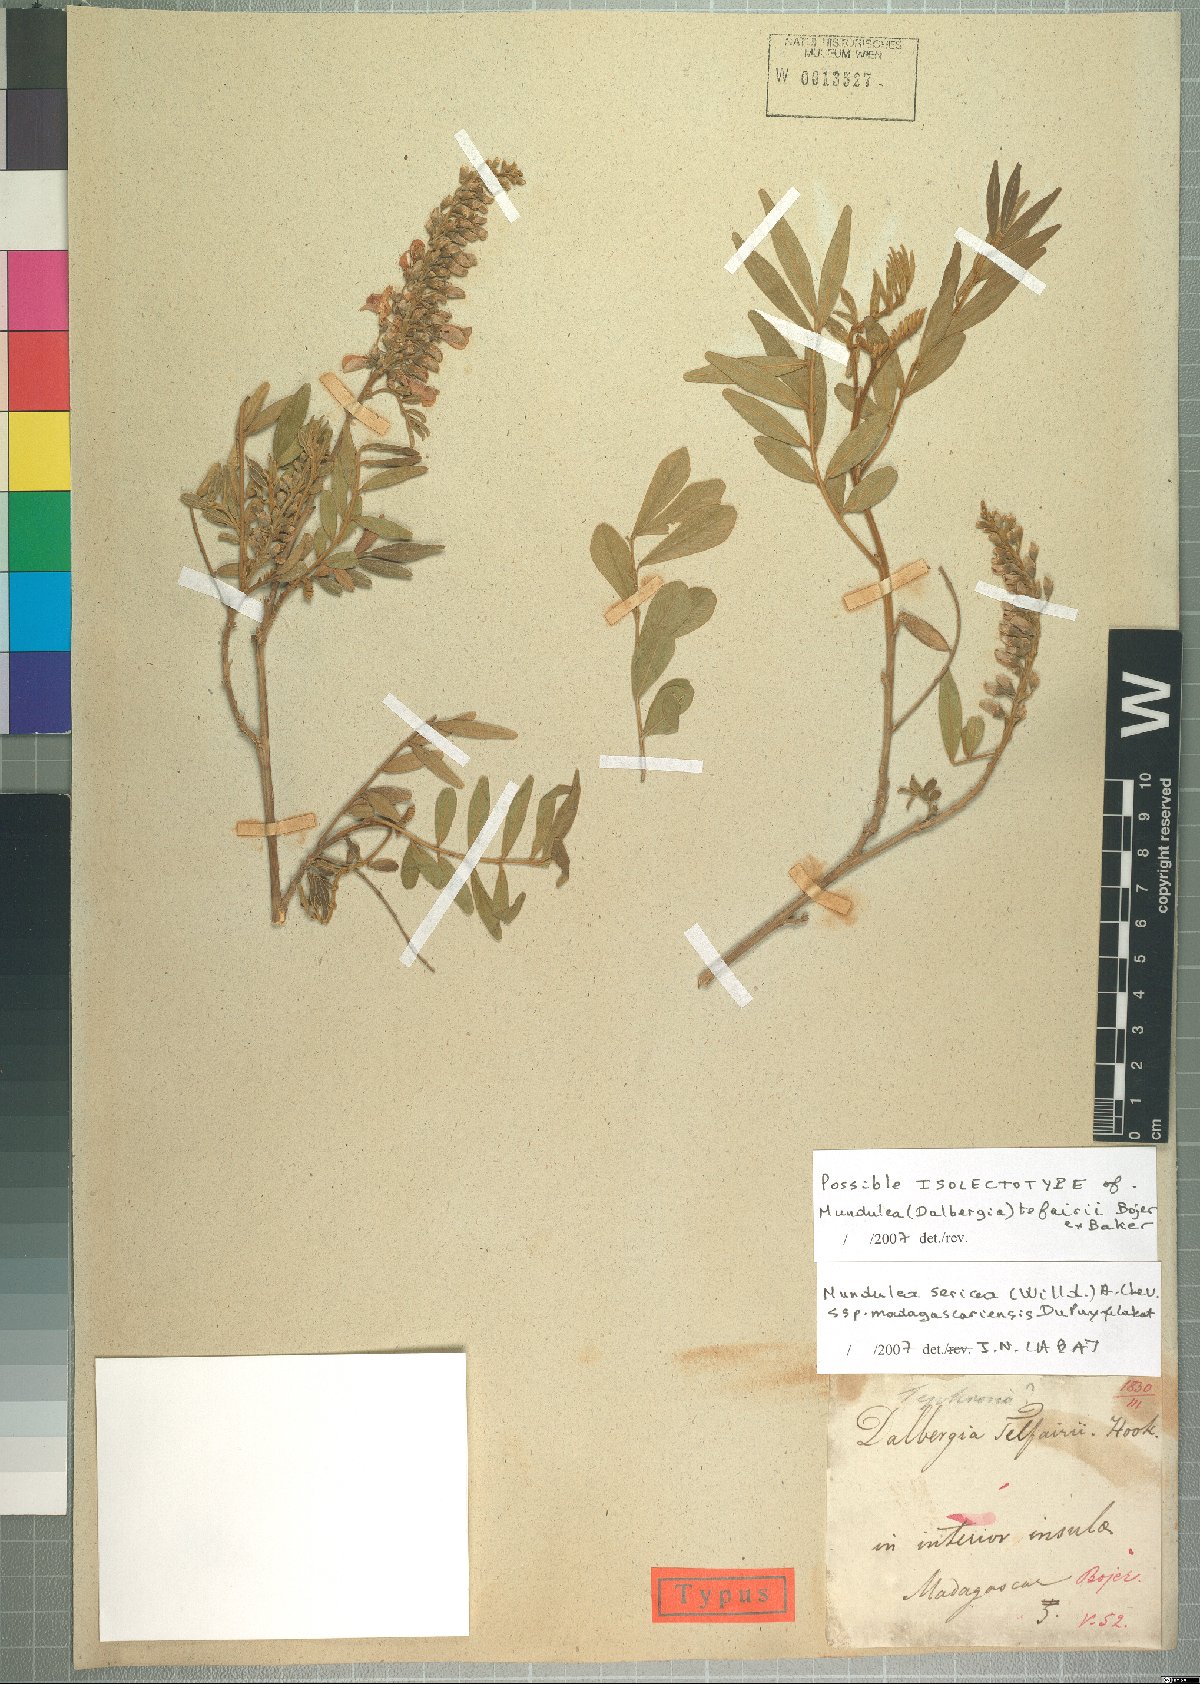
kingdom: Plantae
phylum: Tracheophyta
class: Magnoliopsida
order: Fabales
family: Fabaceae
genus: Mundulea
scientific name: Mundulea sericea
